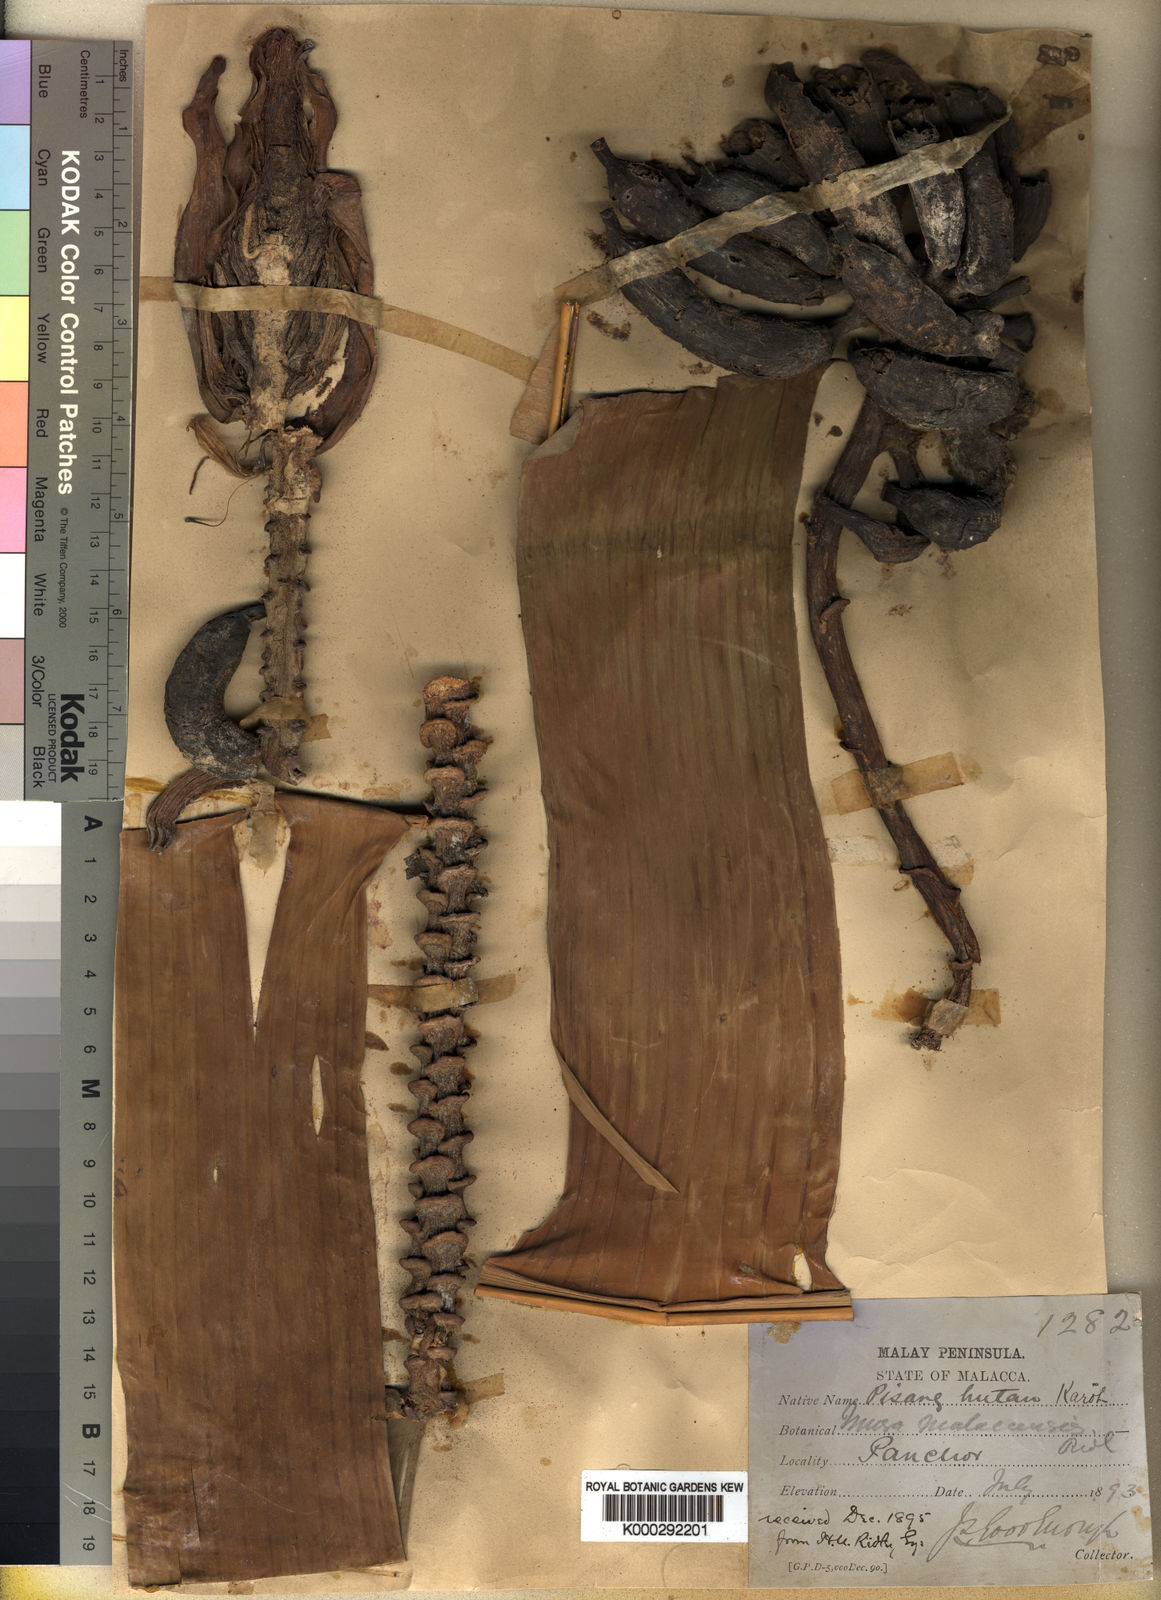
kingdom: Plantae
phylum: Tracheophyta
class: Liliopsida
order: Zingiberales
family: Musaceae
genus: Musa
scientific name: Musa acuminata
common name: Edible banana
